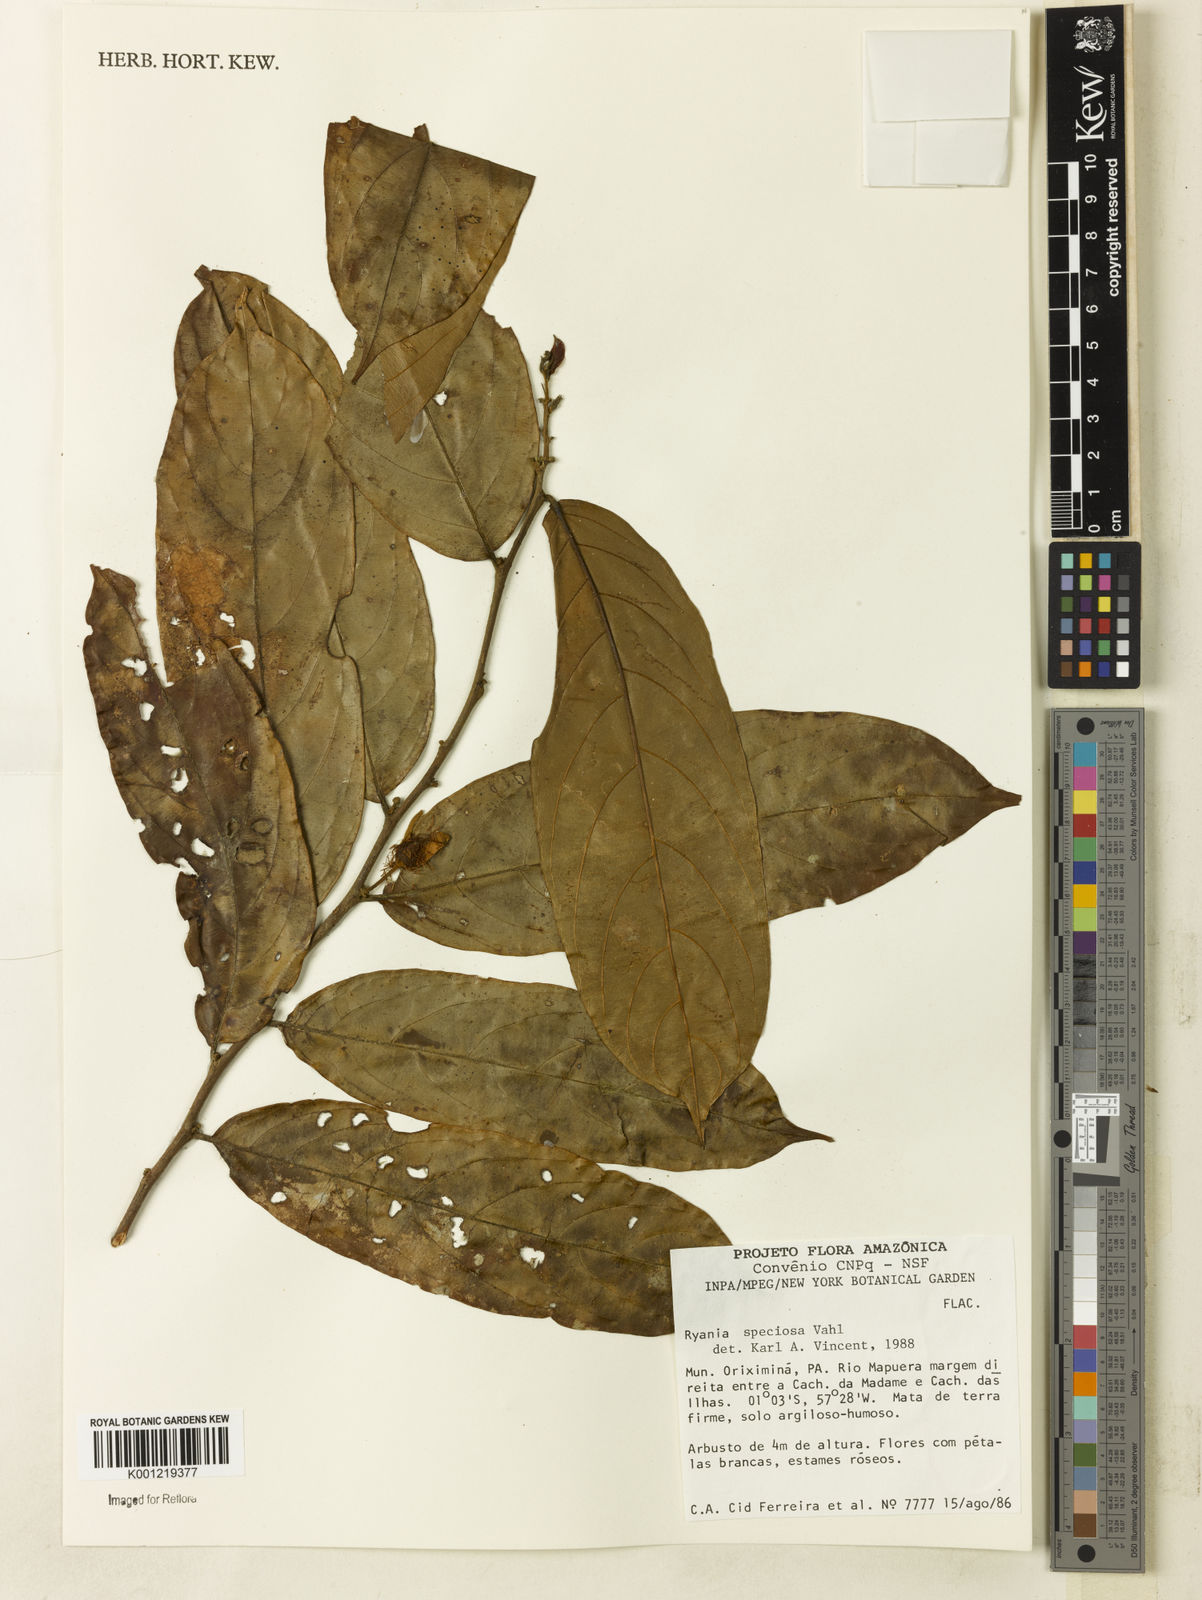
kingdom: Plantae
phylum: Tracheophyta
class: Magnoliopsida
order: Malpighiales
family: Salicaceae
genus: Ryania
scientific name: Ryania speciosa
